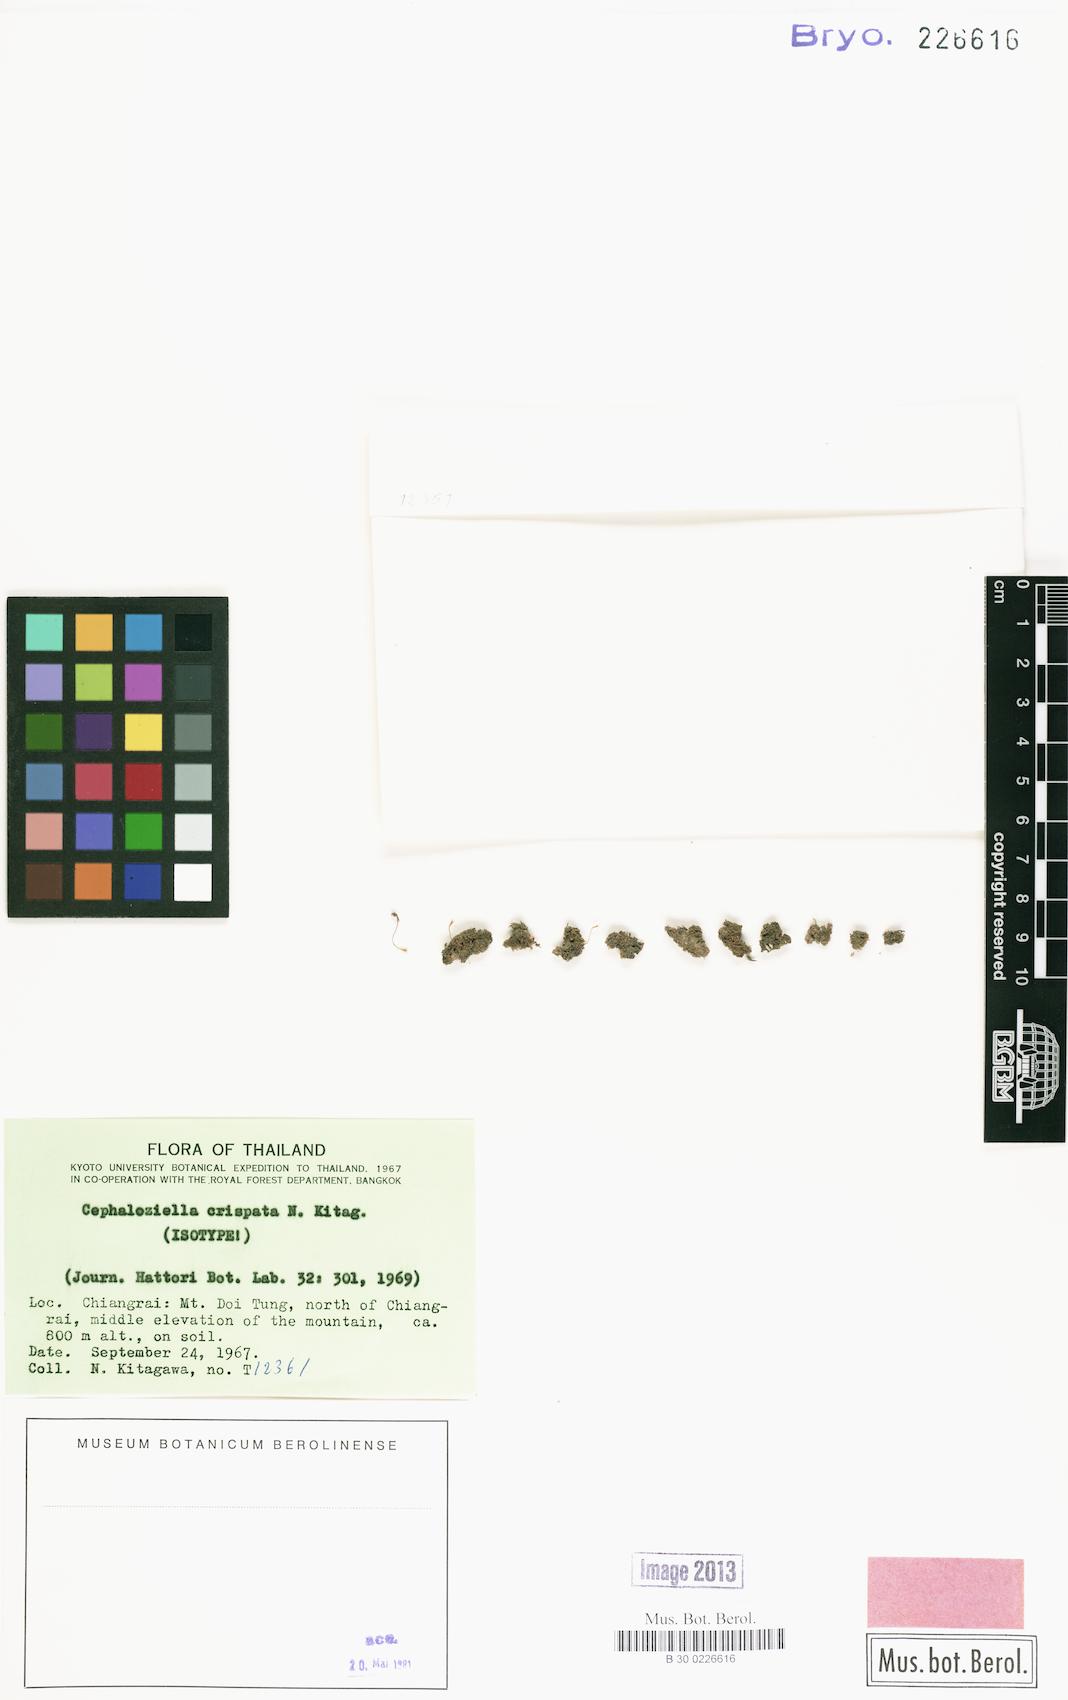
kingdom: Plantae
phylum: Marchantiophyta
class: Jungermanniopsida
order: Jungermanniales
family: Cephaloziellaceae
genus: Cephaloziella
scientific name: Cephaloziella crispata
